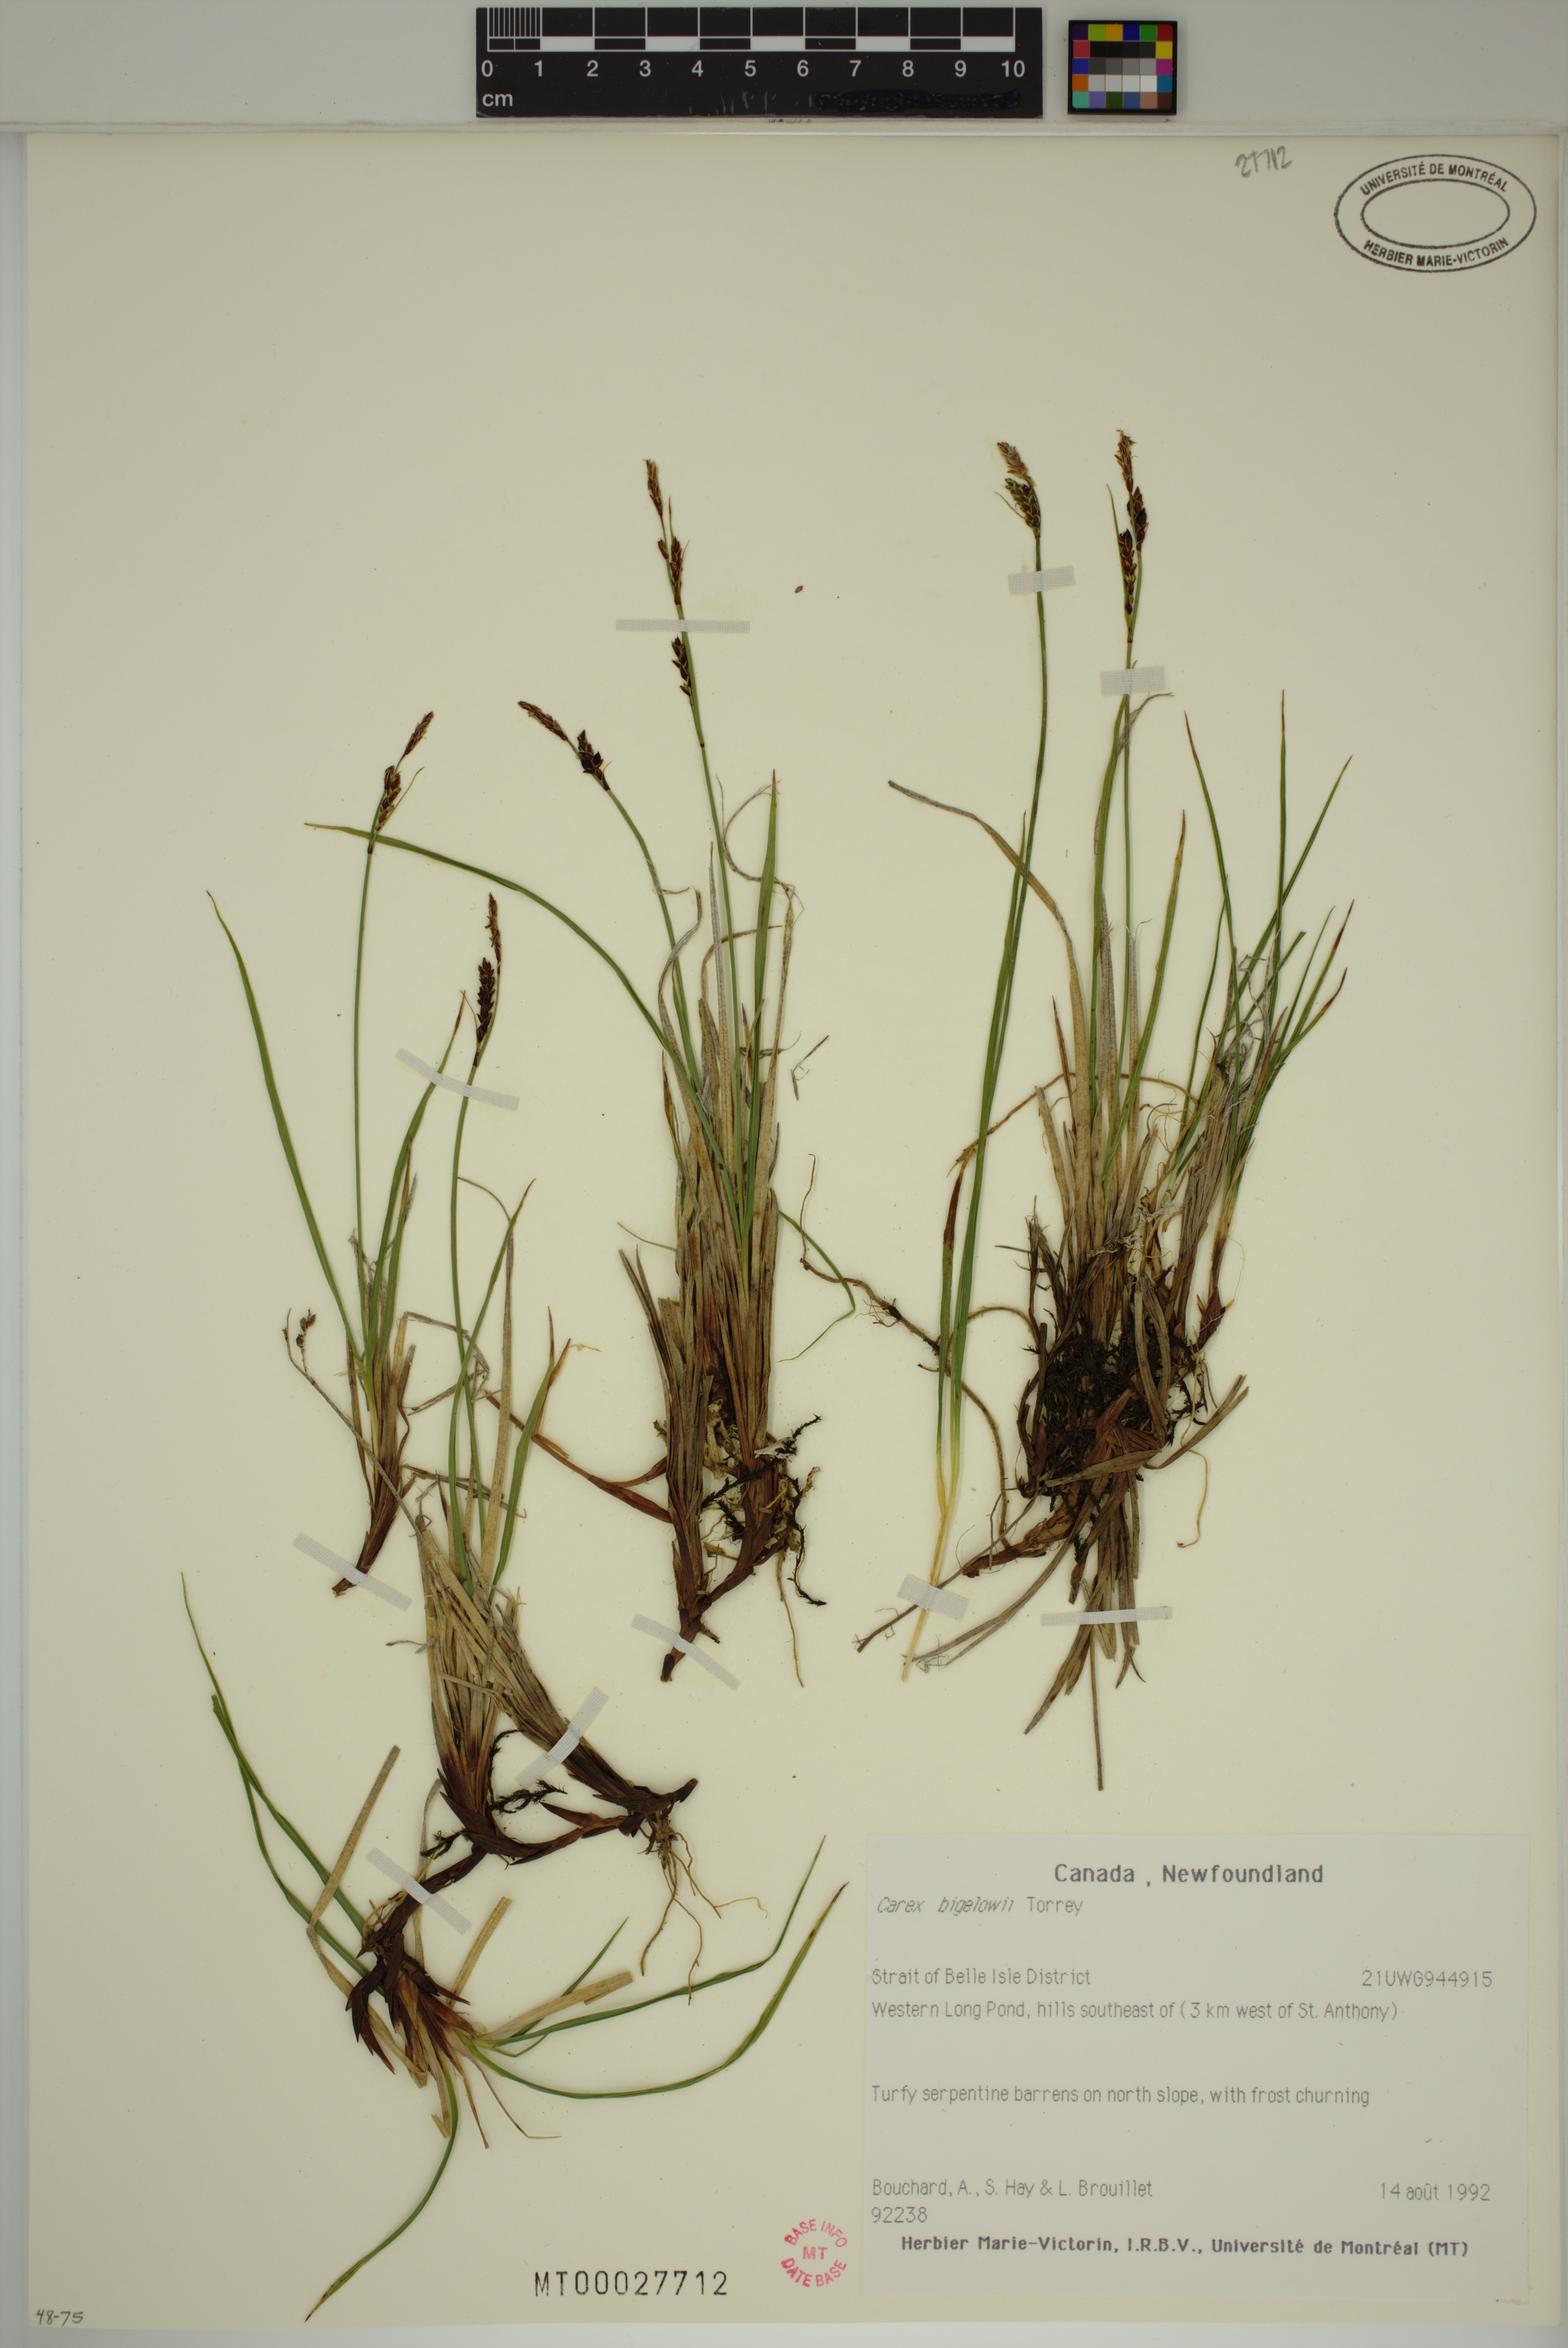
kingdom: Plantae
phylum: Tracheophyta
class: Liliopsida
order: Poales
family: Cyperaceae
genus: Carex
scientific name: Carex bigelowii
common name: Stiff sedge
